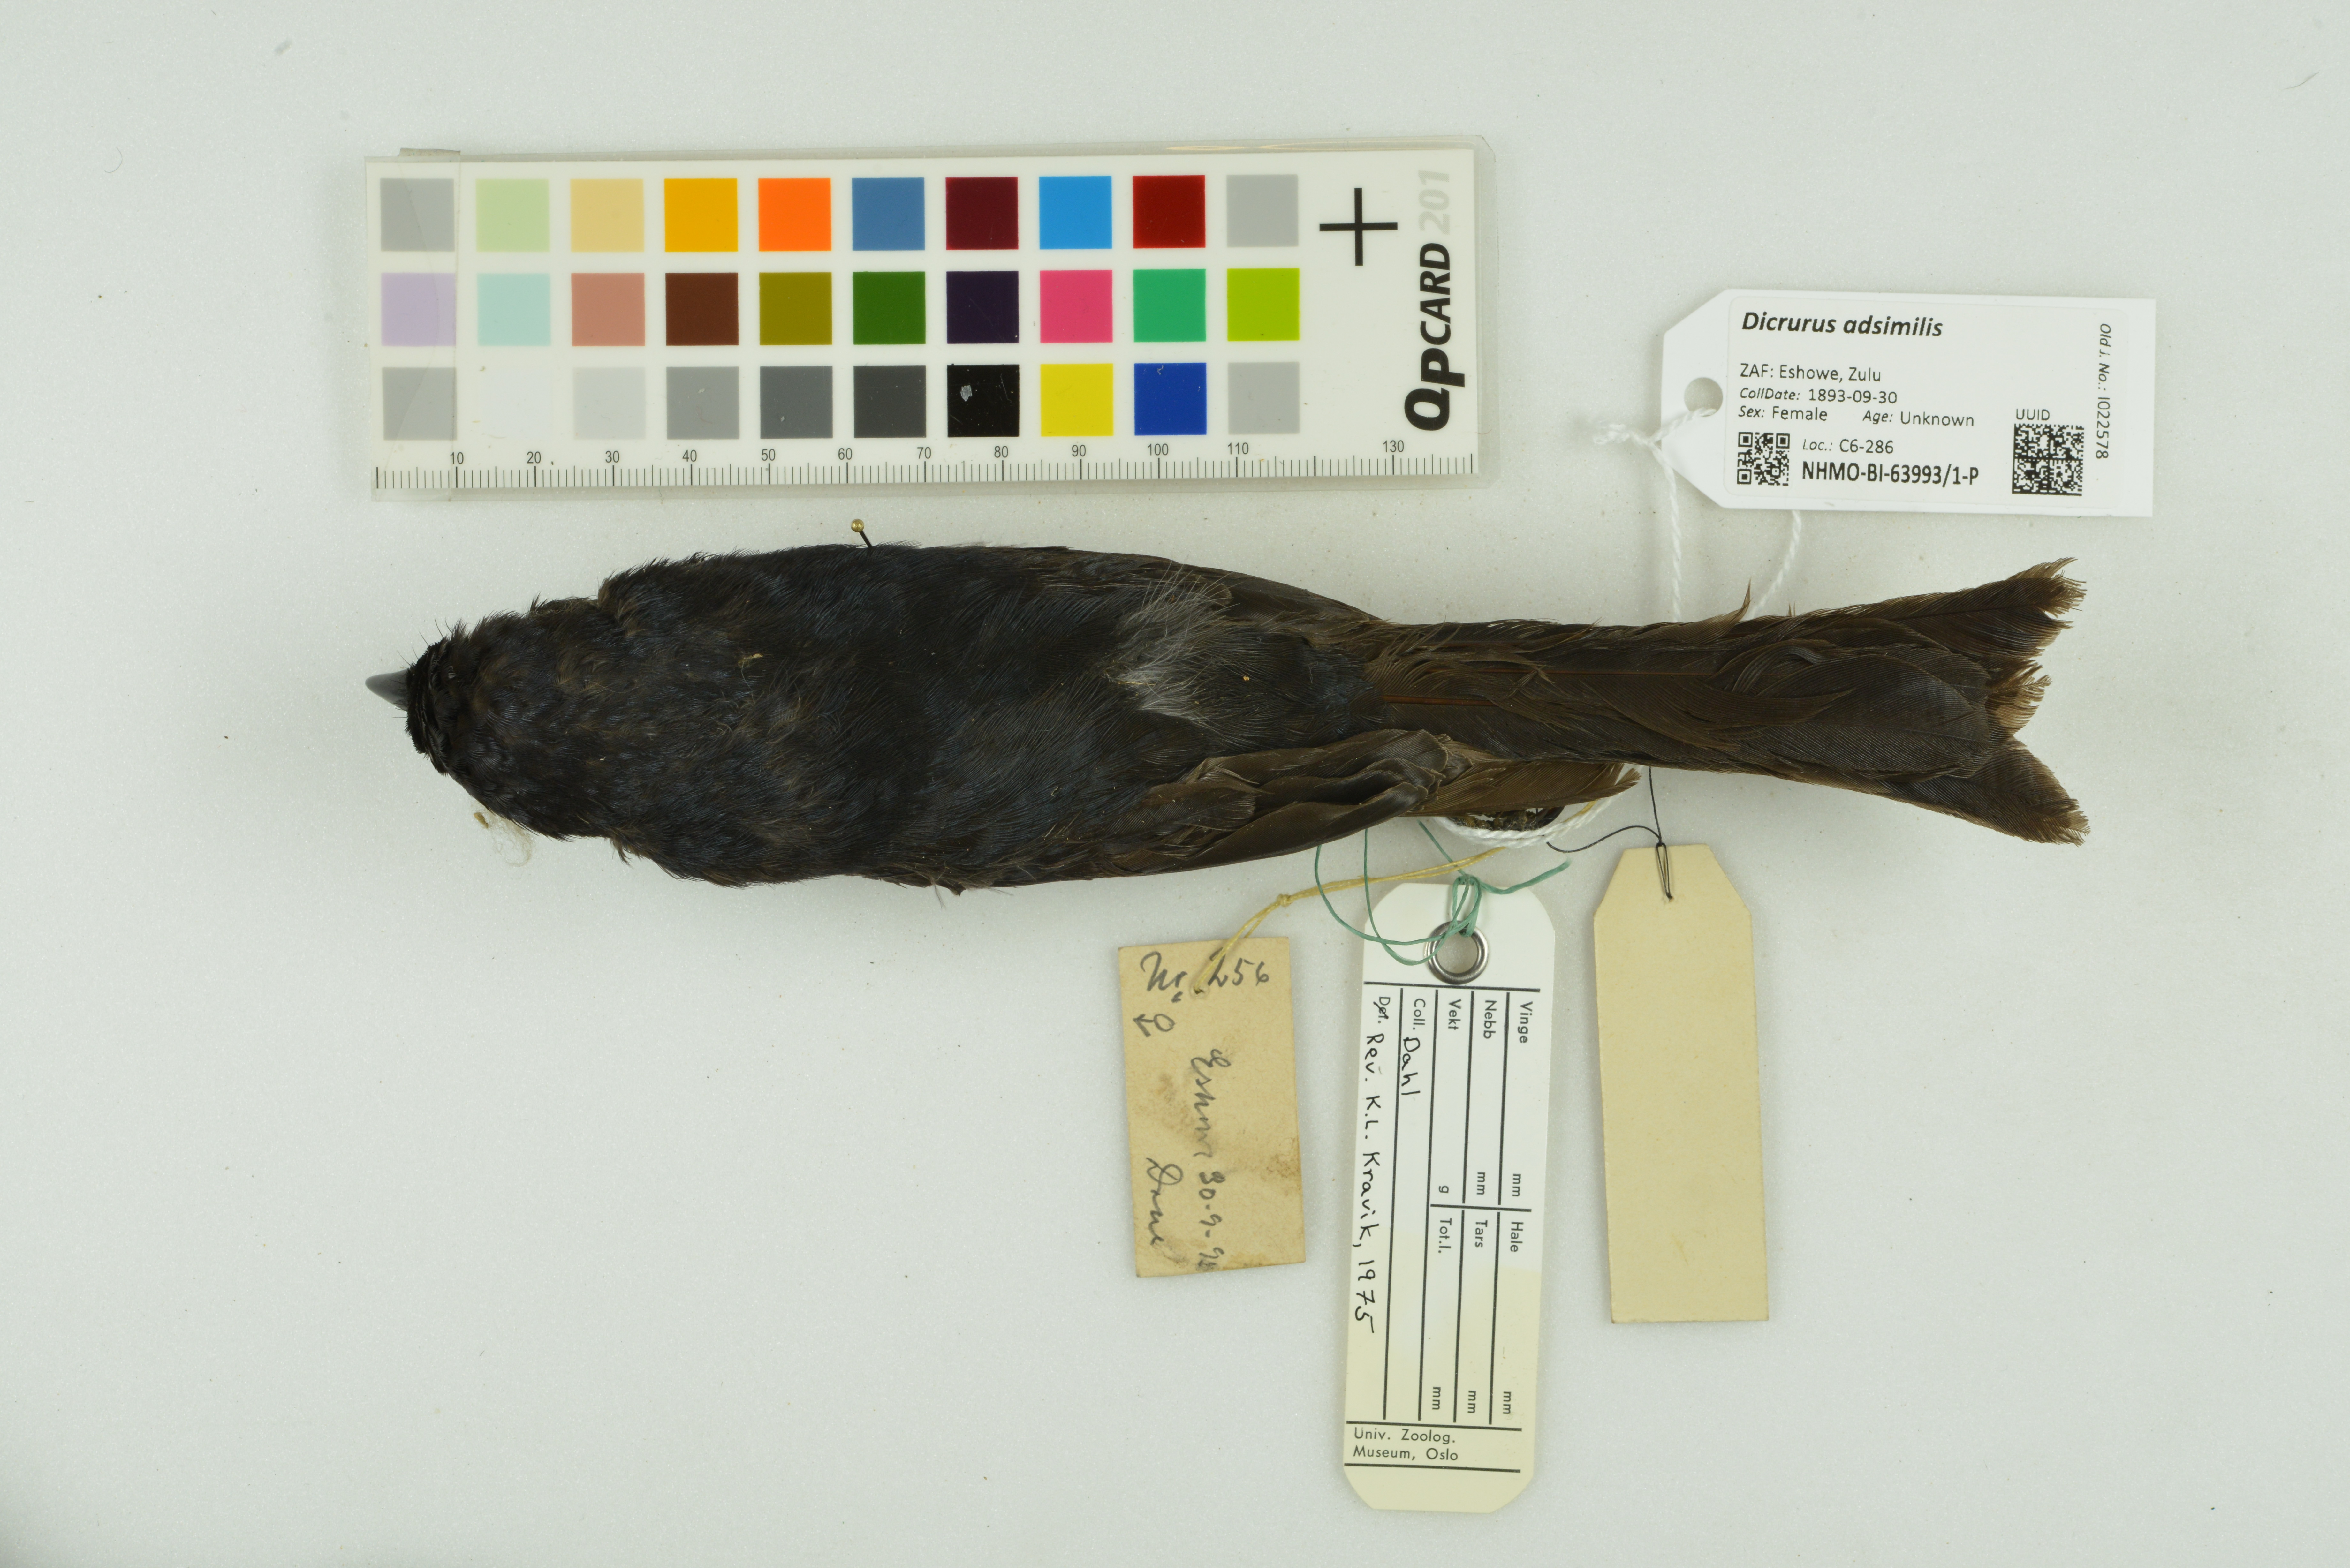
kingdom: Animalia
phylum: Chordata
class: Aves
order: Passeriformes
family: Dicruridae
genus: Dicrurus
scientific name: Dicrurus adsimilis
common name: Fork-tailed drongo
